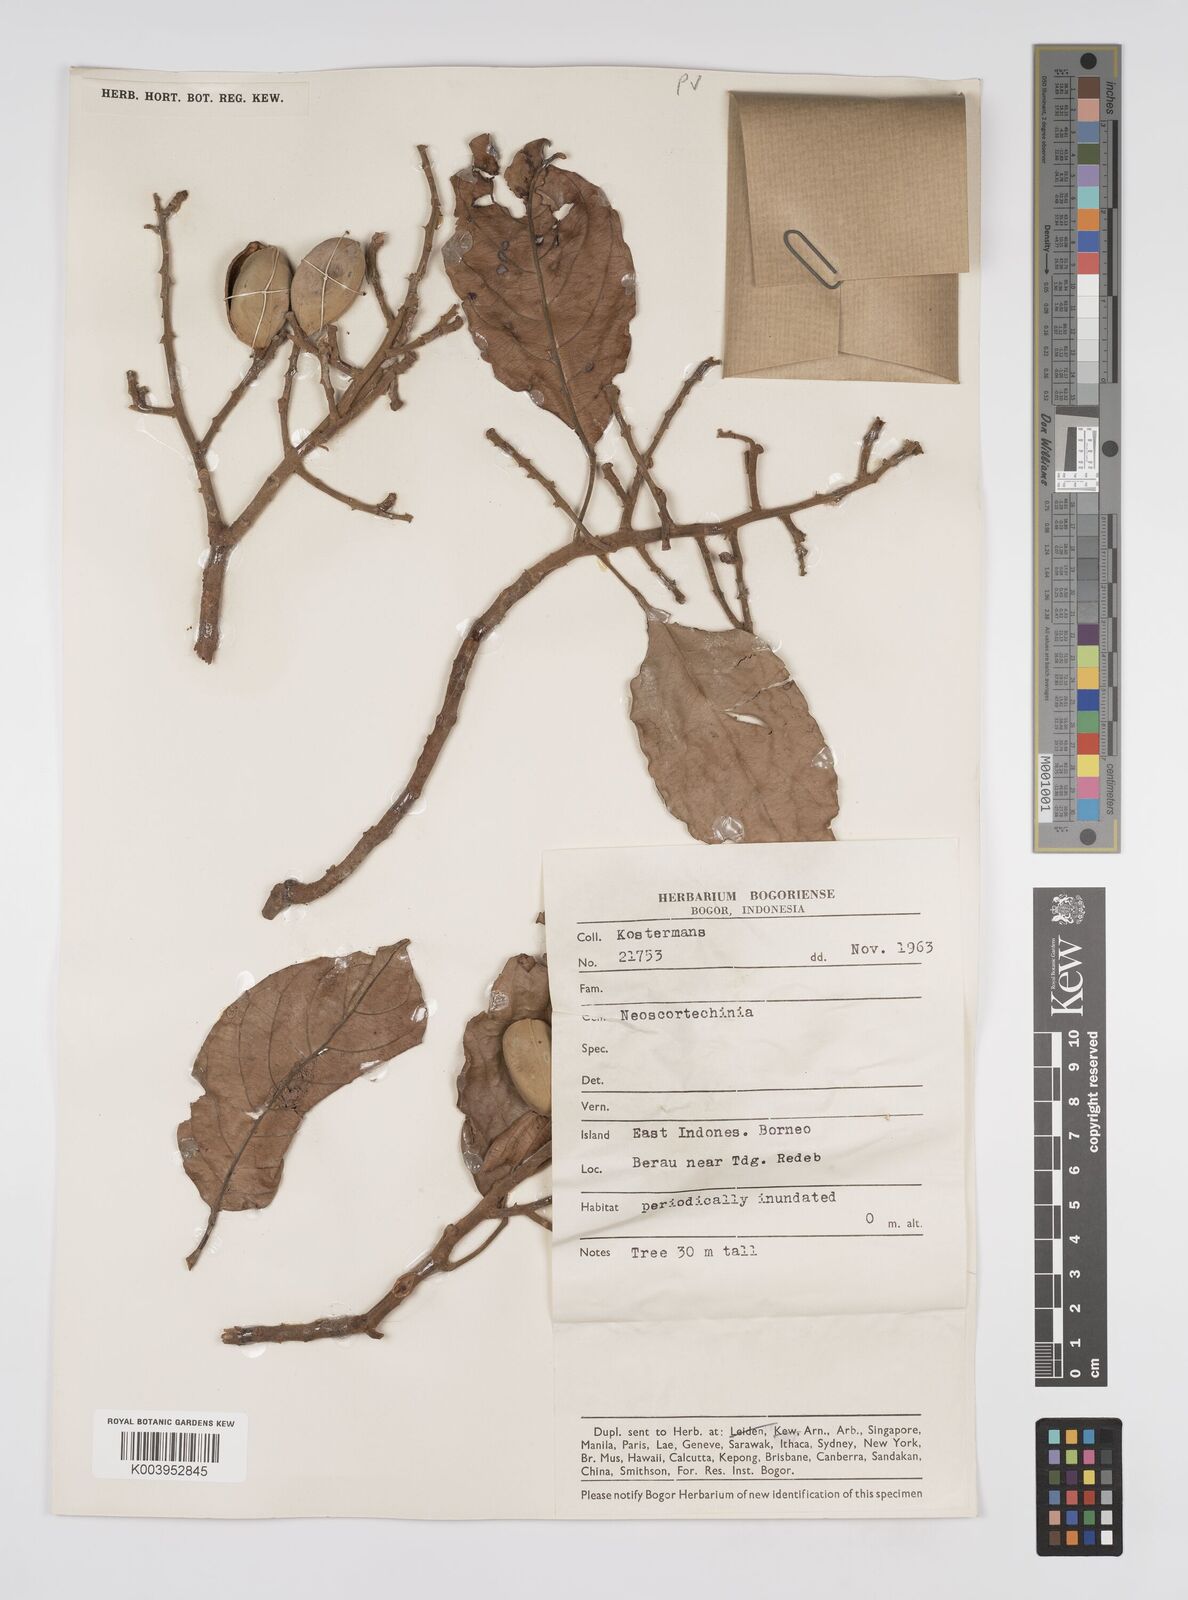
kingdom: Plantae
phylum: Tracheophyta
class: Magnoliopsida
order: Malpighiales
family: Euphorbiaceae
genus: Neoscortechinia
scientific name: Neoscortechinia nicobarica
